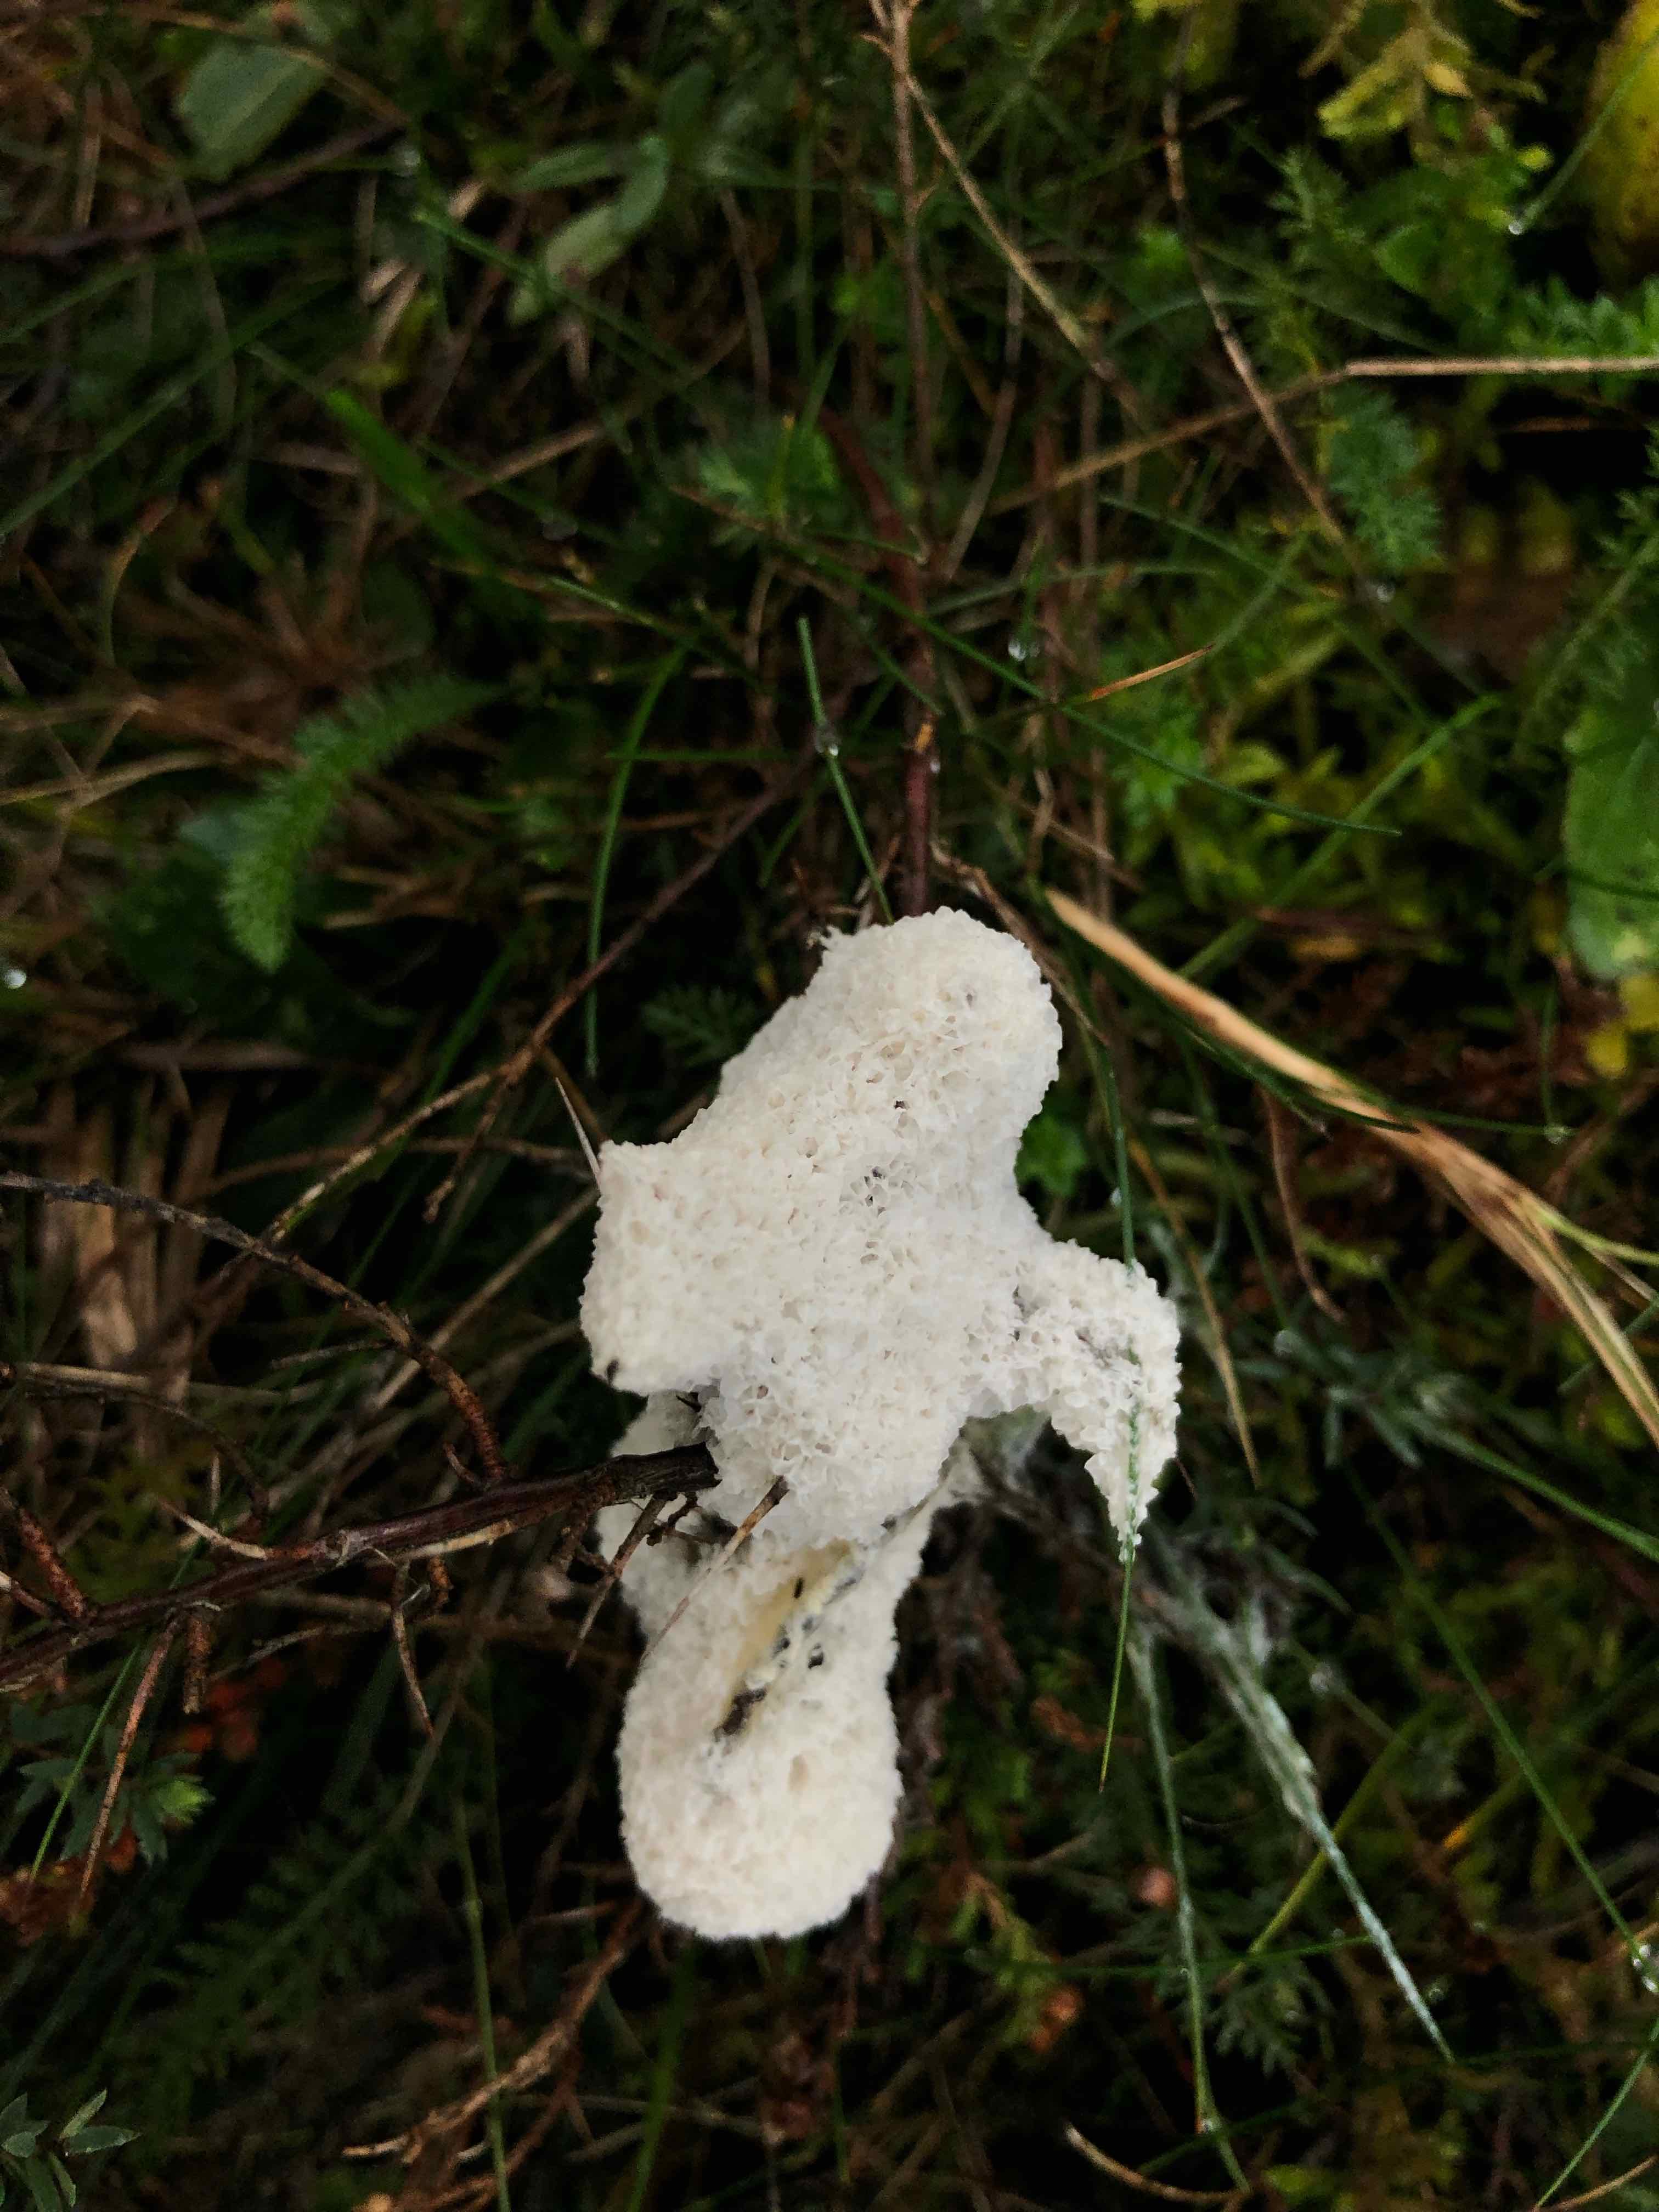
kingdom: Protozoa
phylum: Mycetozoa
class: Myxomycetes
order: Physarales
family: Physaraceae
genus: Didymium
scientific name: Didymium
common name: urteskum
